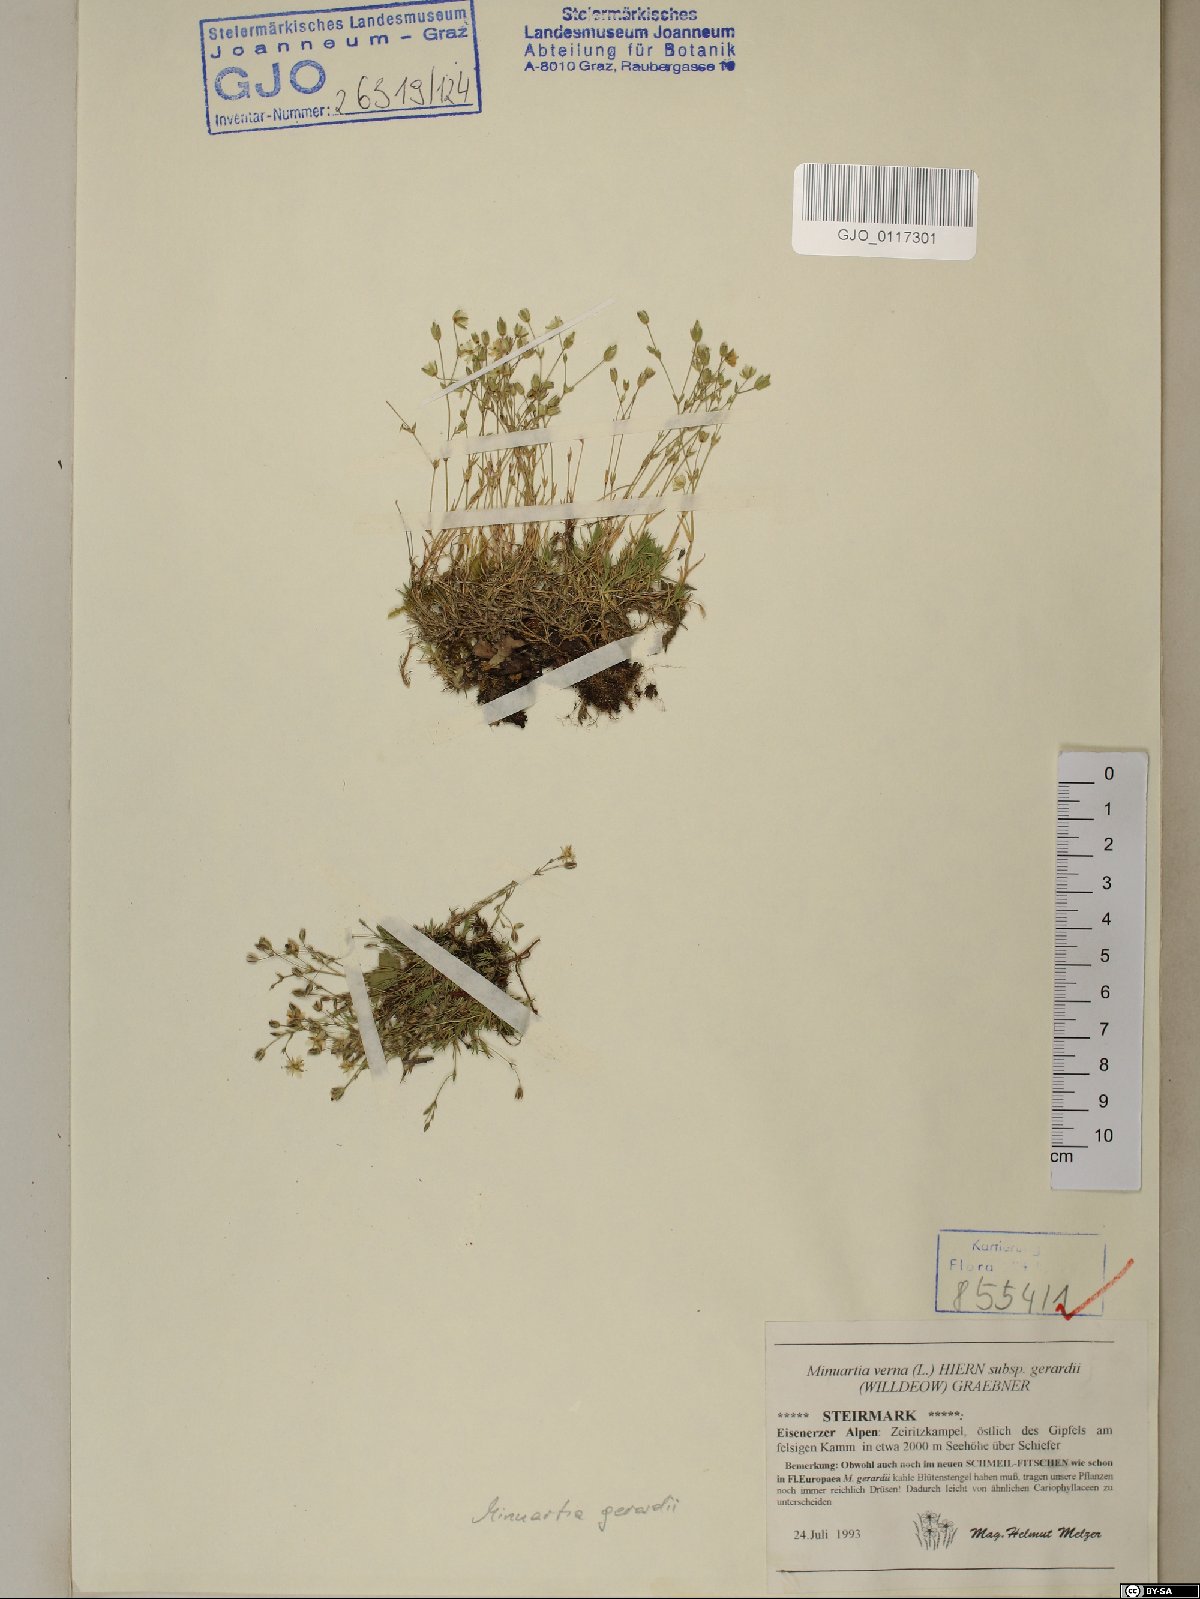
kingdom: Plantae
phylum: Tracheophyta
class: Magnoliopsida
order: Caryophyllales
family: Caryophyllaceae
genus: Sabulina
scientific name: Sabulina verna
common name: Spring sandwort
